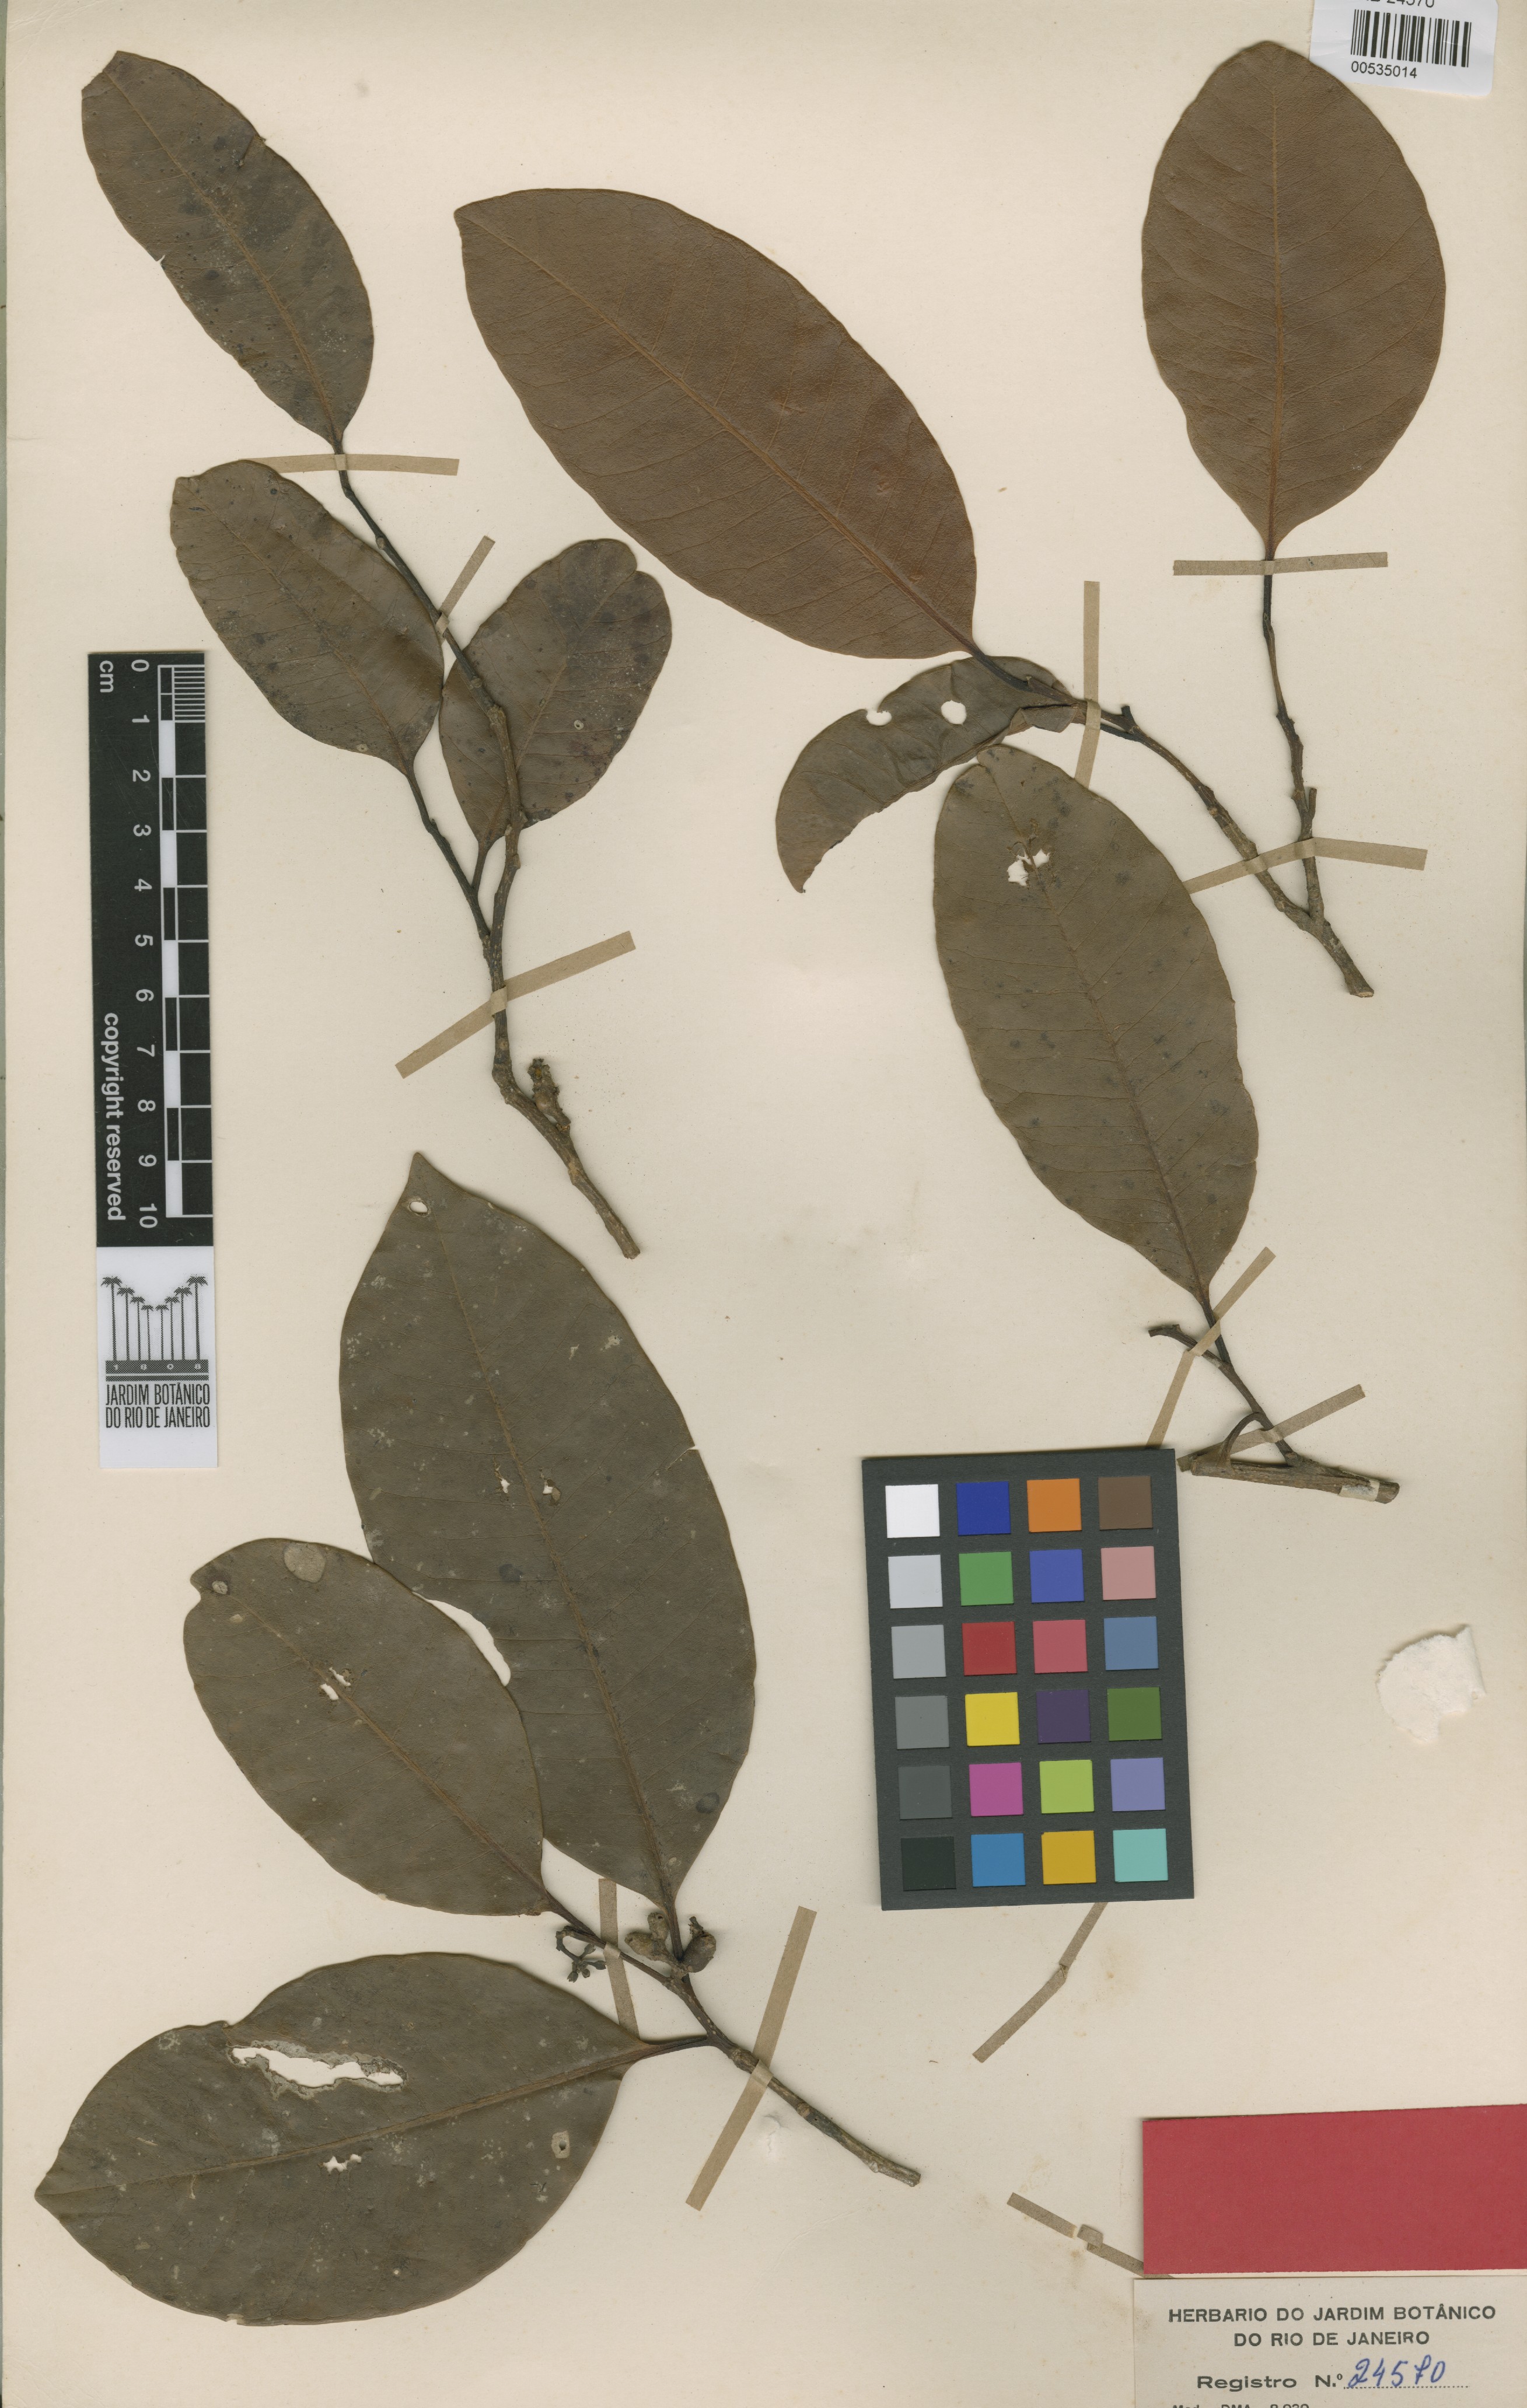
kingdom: Plantae
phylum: Tracheophyta
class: Magnoliopsida
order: Gentianales
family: Apocynaceae
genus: Aspidosperma
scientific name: Aspidosperma excelsum
